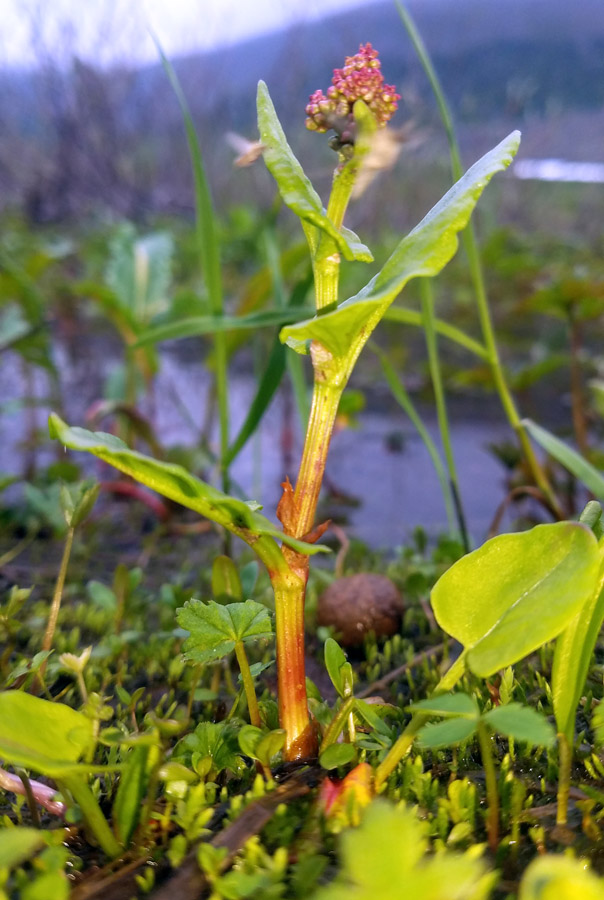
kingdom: Plantae
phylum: Tracheophyta
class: Magnoliopsida
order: Caryophyllales
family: Polygonaceae
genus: Rumex
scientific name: Rumex acetosa
